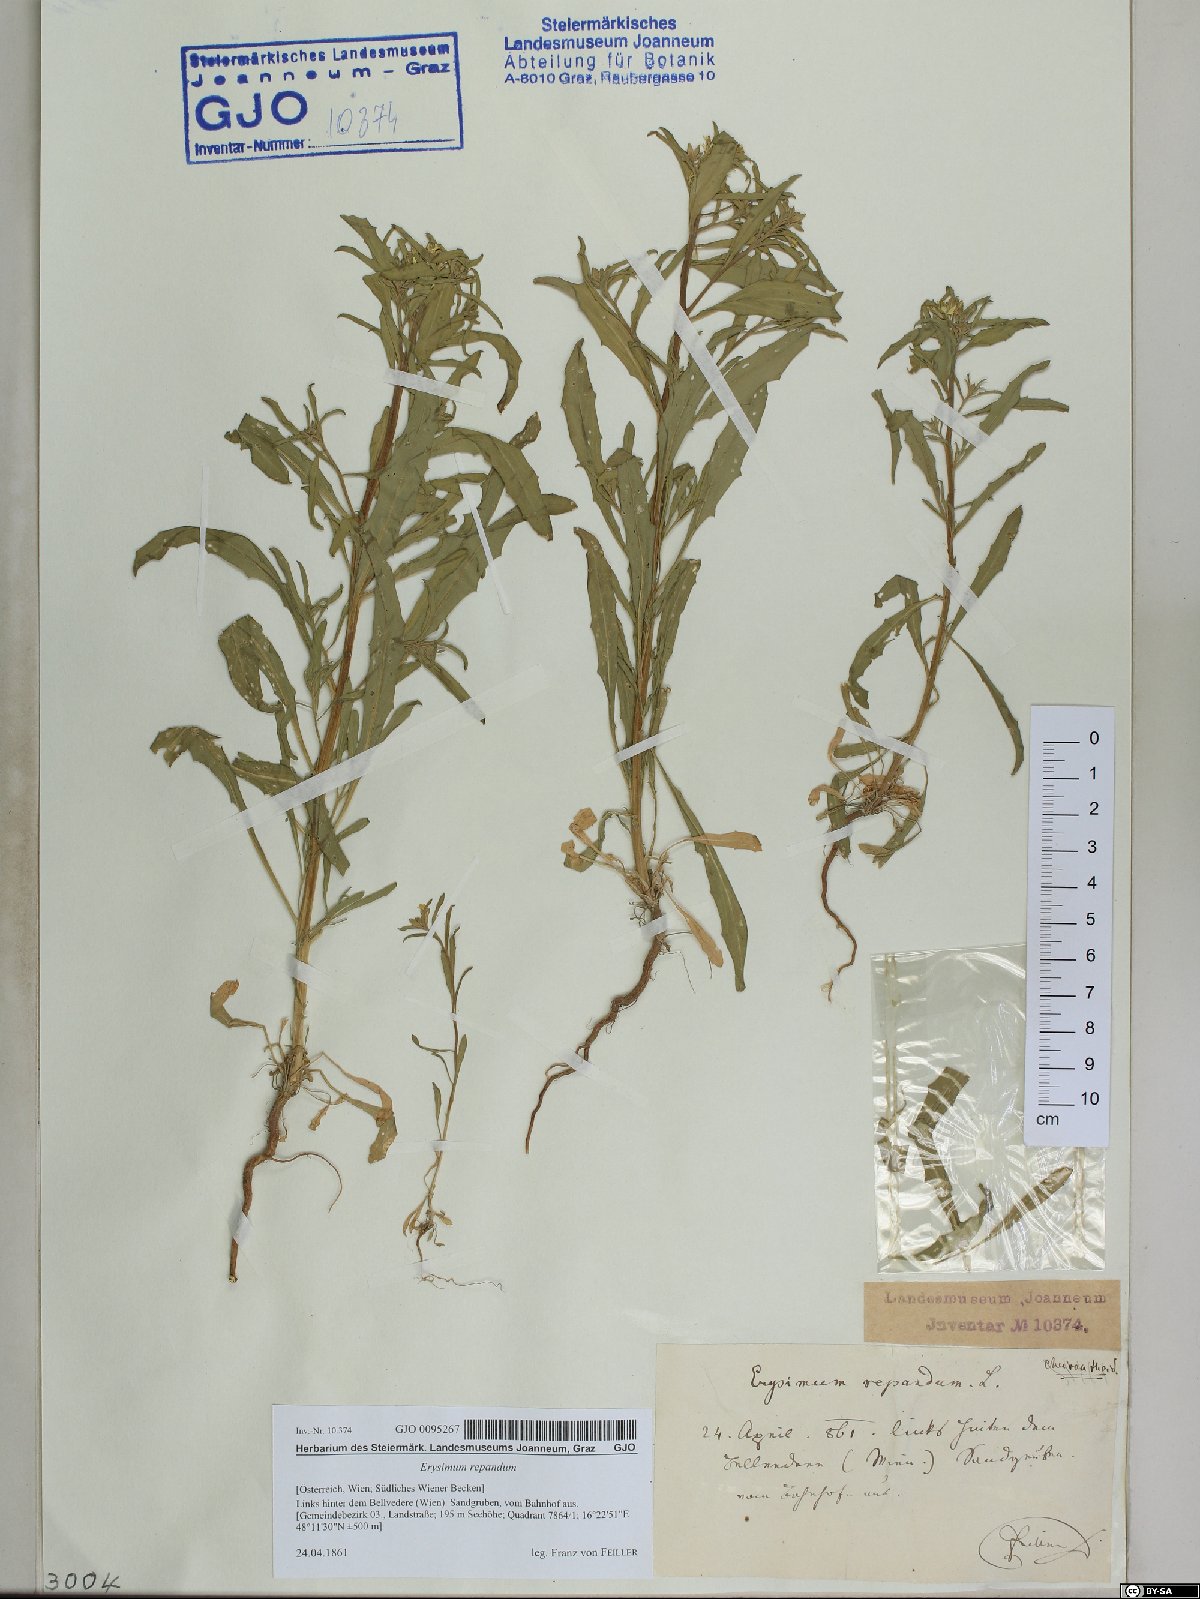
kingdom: Plantae
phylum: Tracheophyta
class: Magnoliopsida
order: Brassicales
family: Brassicaceae
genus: Erysimum
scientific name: Erysimum repandum
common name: Spreading wallflower
